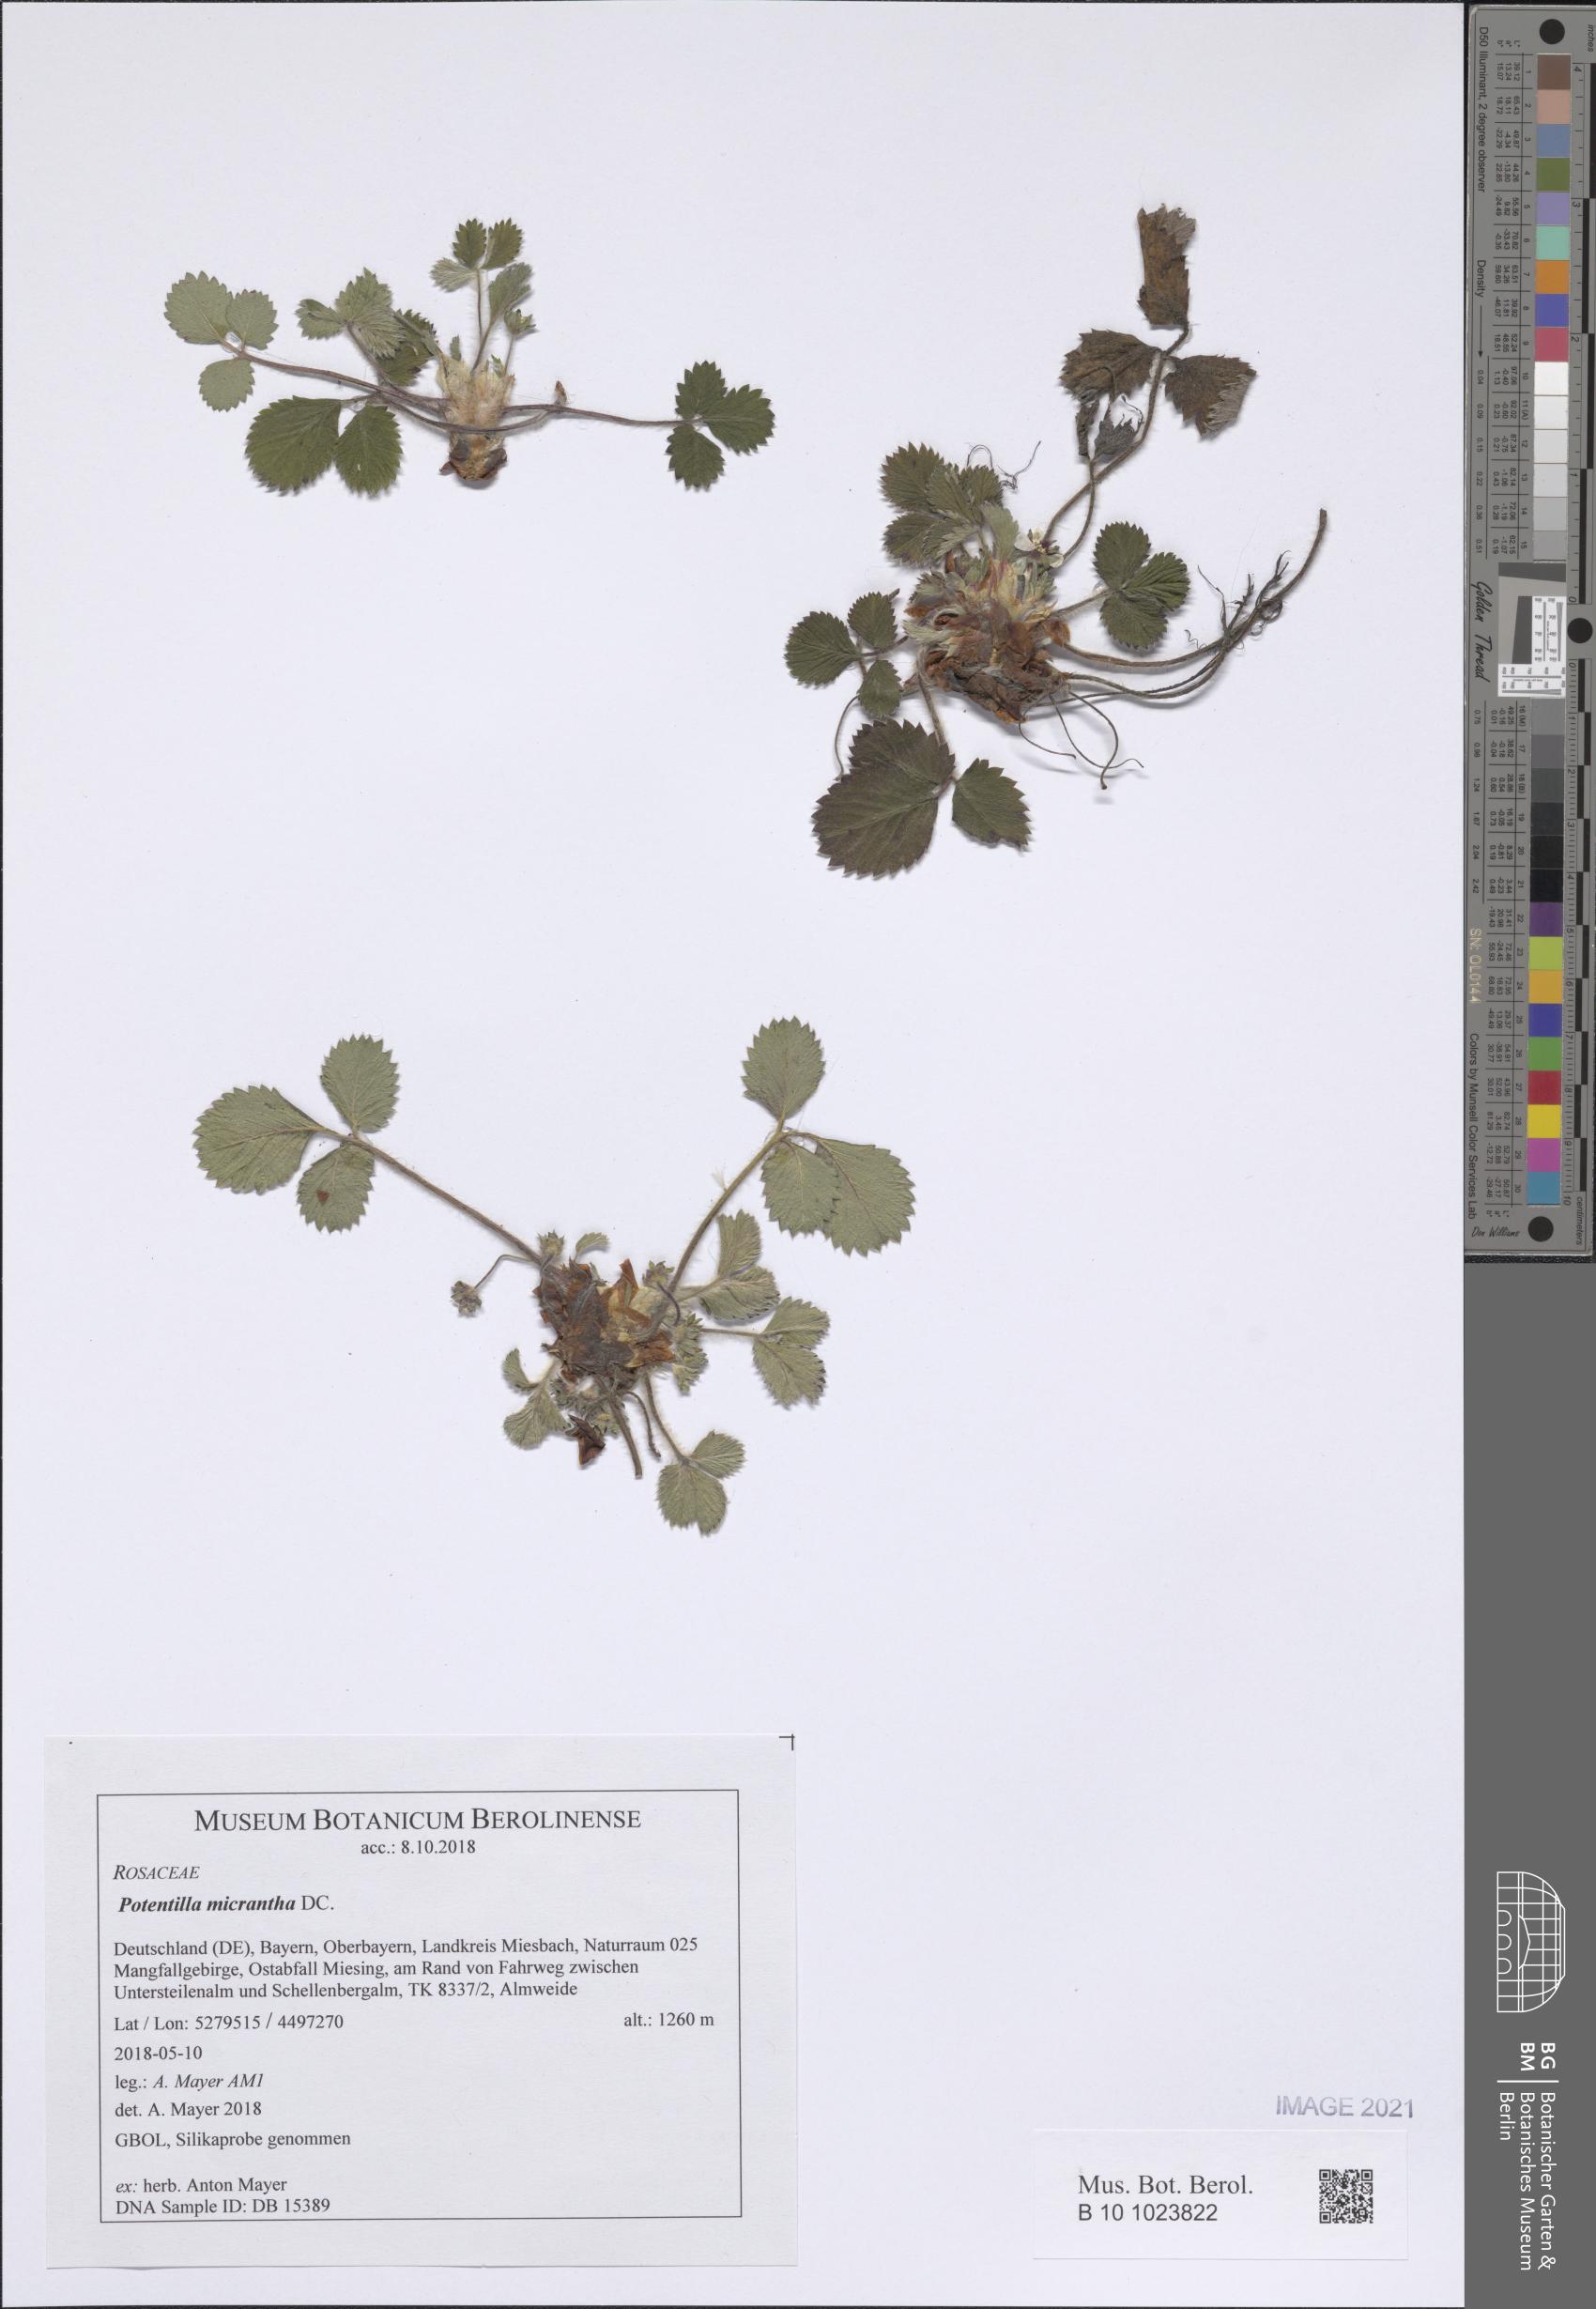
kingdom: Plantae
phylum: Tracheophyta
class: Magnoliopsida
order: Rosales
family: Rosaceae
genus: Potentilla
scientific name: Potentilla micrantha
